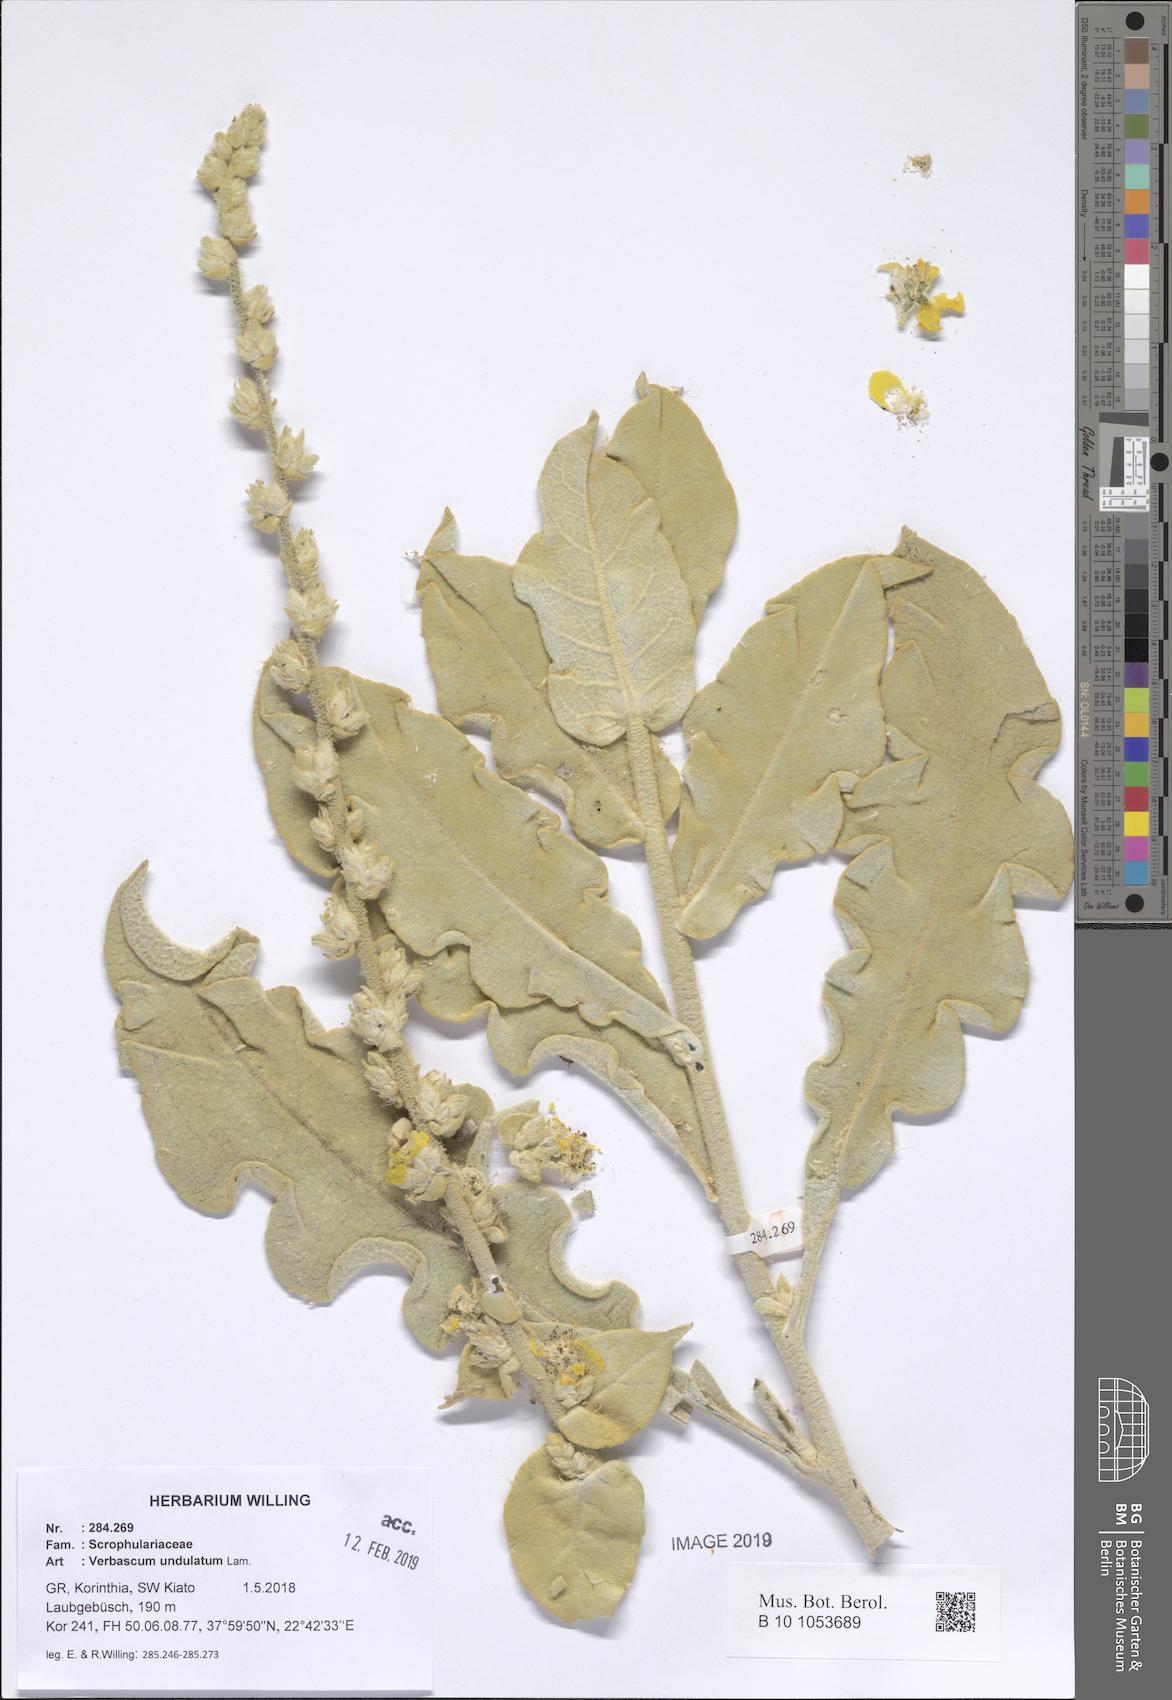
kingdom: Plantae
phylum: Tracheophyta
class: Magnoliopsida
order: Lamiales
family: Scrophulariaceae
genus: Verbascum
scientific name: Verbascum undulatum
